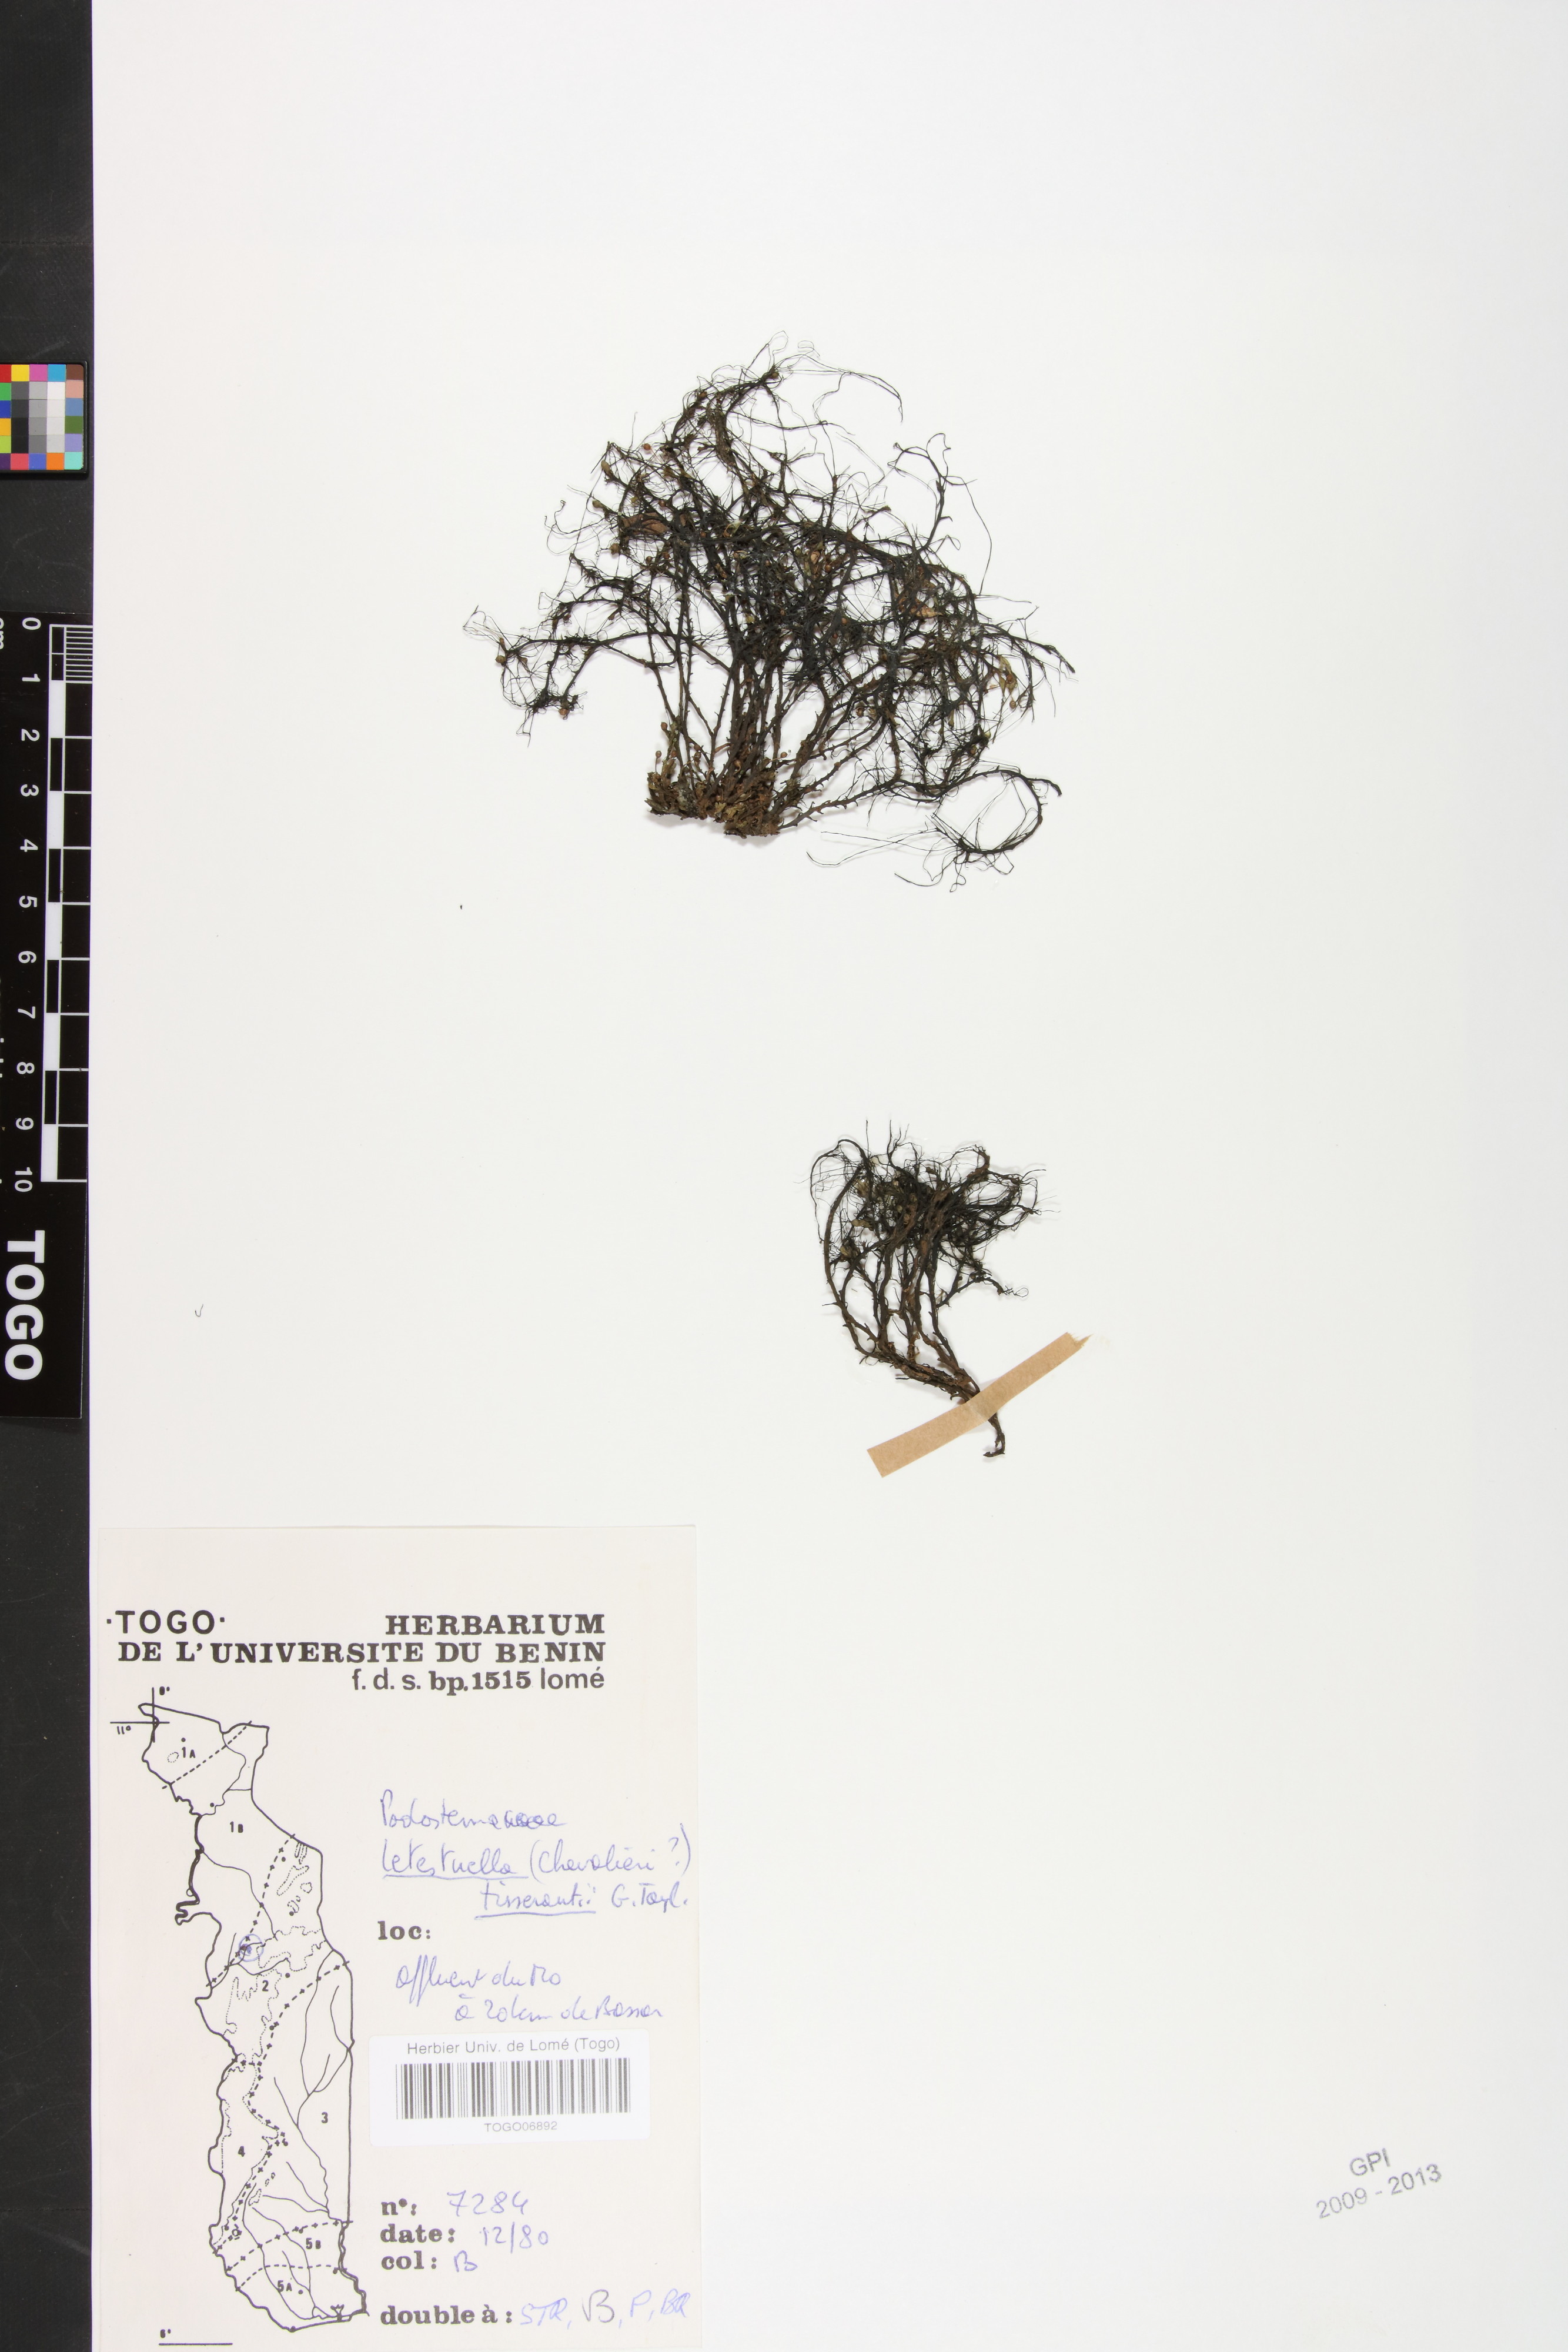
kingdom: Plantae
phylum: Tracheophyta
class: Magnoliopsida
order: Malpighiales
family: Podostemaceae
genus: Letestuella
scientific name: Letestuella tisserantii
